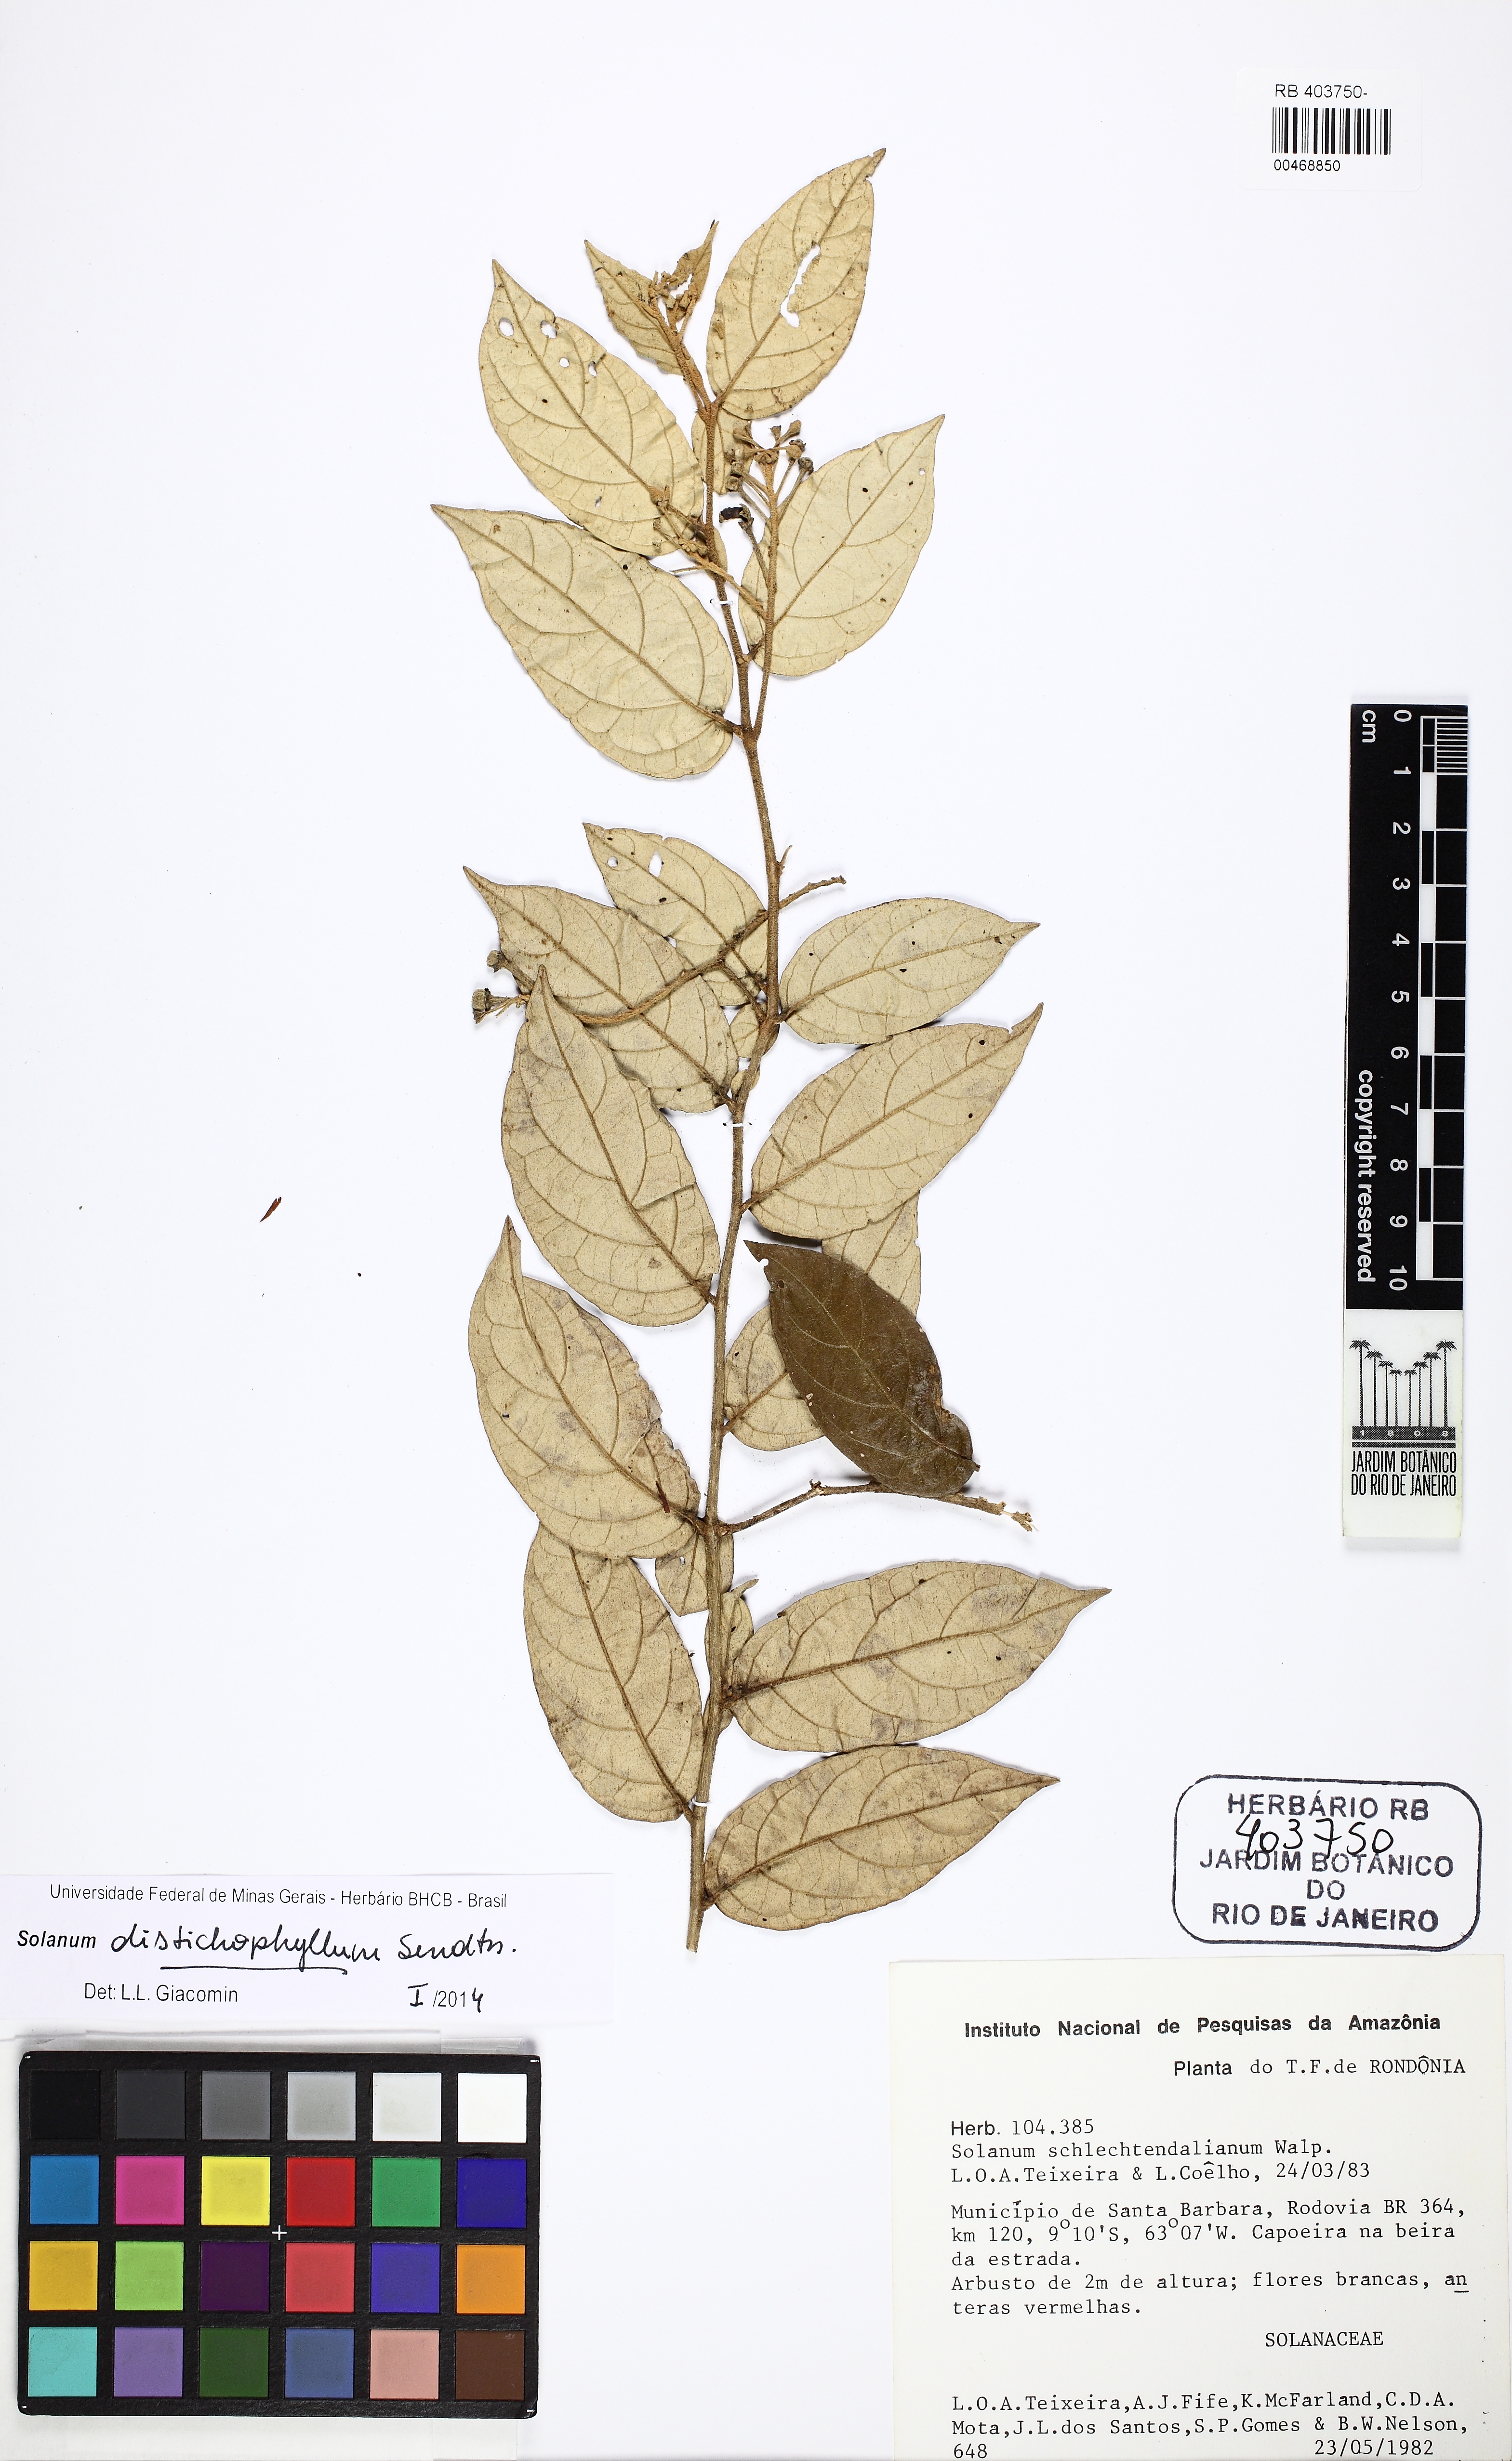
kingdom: Plantae
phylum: Tracheophyta
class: Magnoliopsida
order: Solanales
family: Solanaceae
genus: Solanum
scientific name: Solanum distichophyllum
